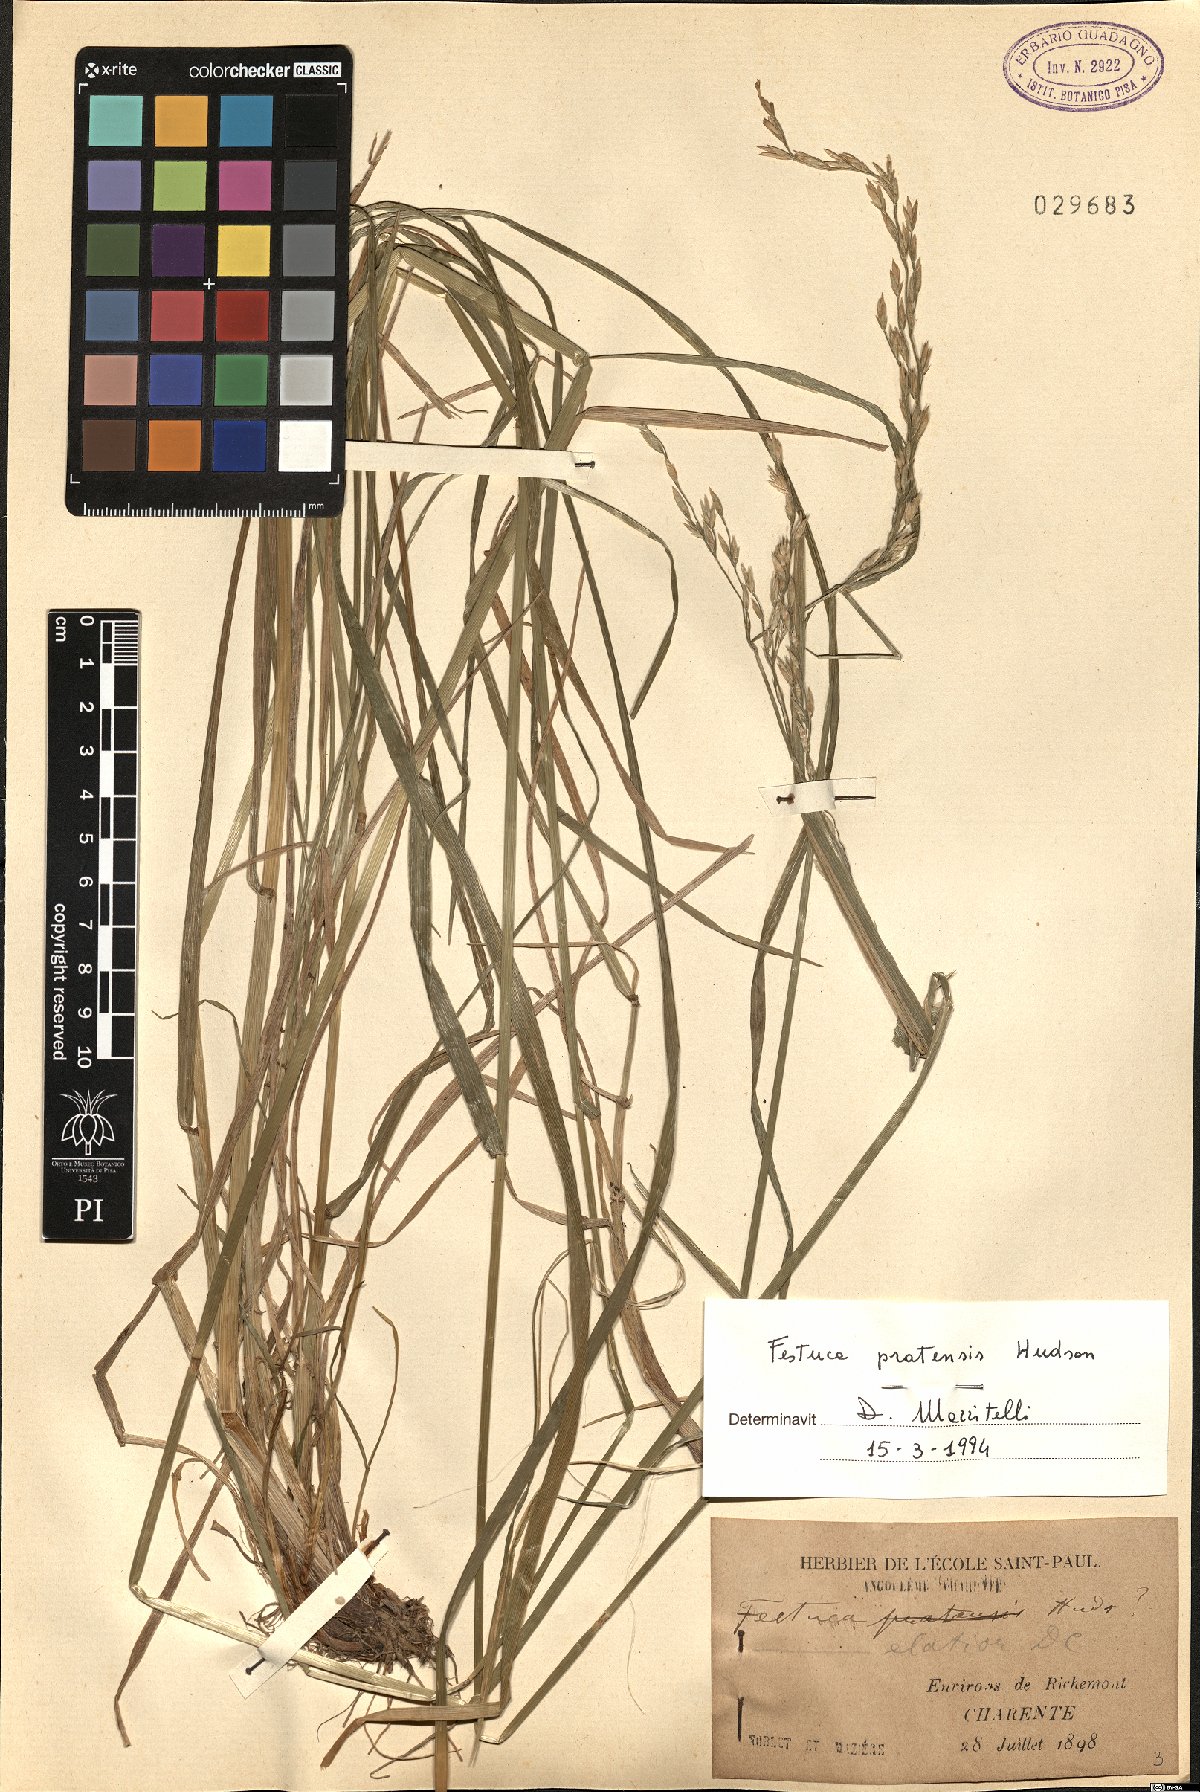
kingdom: Plantae
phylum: Tracheophyta
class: Liliopsida
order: Poales
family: Poaceae
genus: Lolium
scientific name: Lolium pratense
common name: Dover grass
